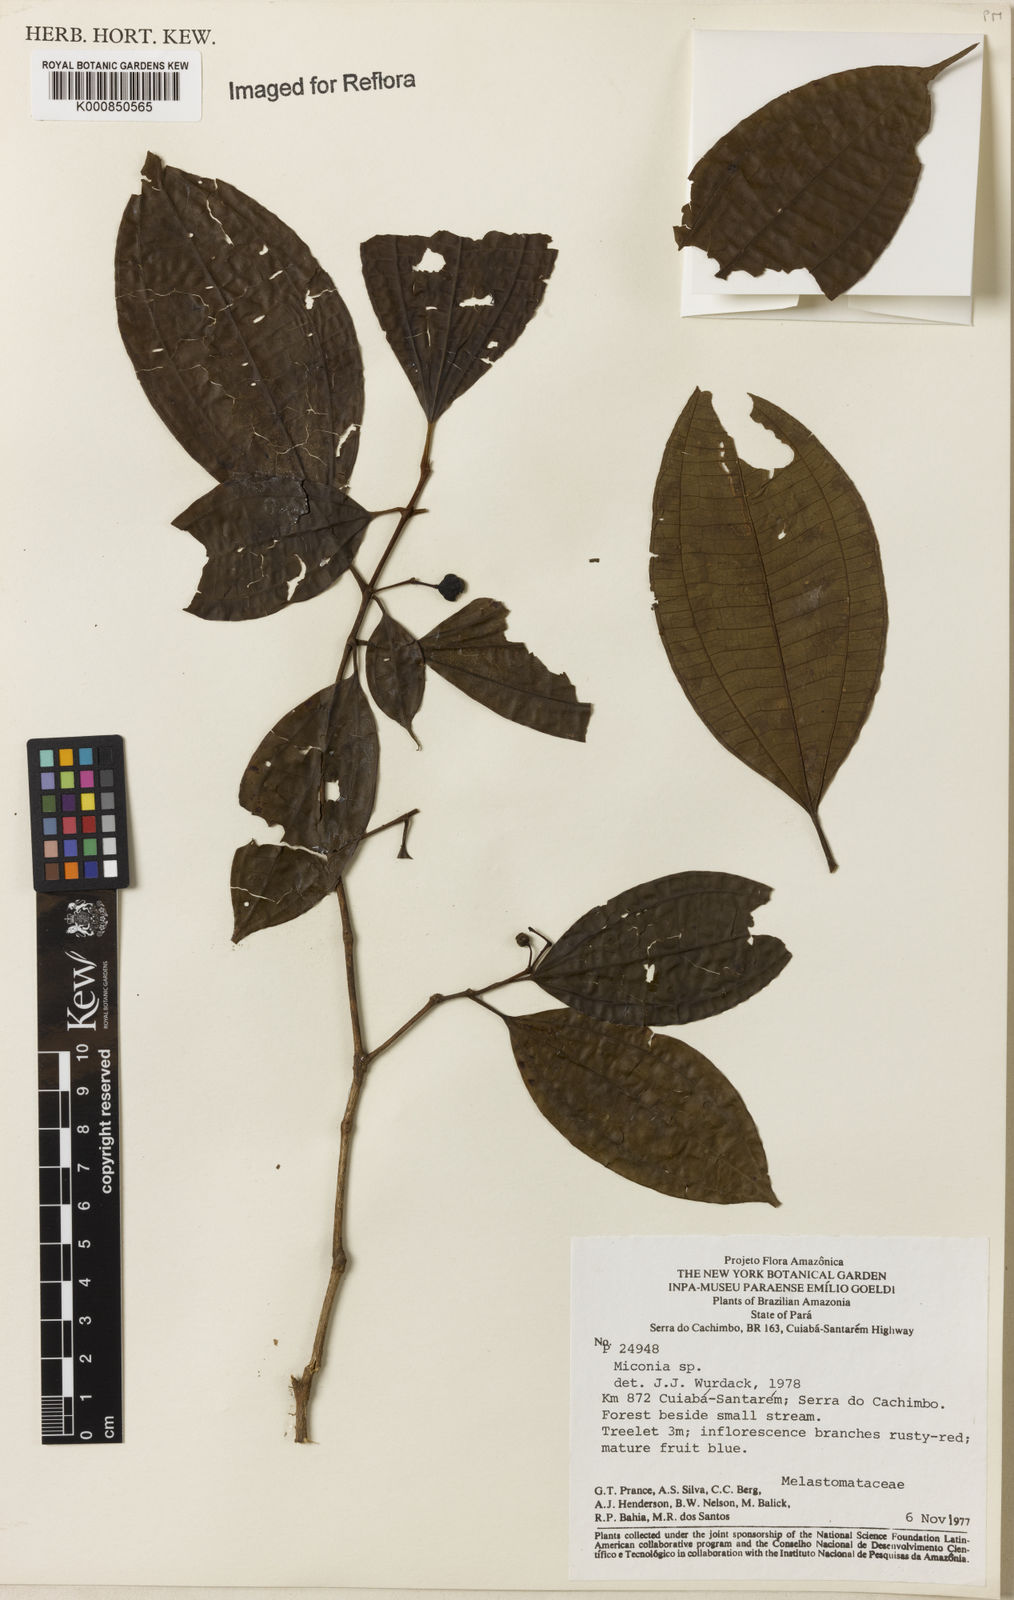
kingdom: Plantae
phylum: Tracheophyta
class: Magnoliopsida
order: Myrtales
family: Melastomataceae
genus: Miconia
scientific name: Miconia
